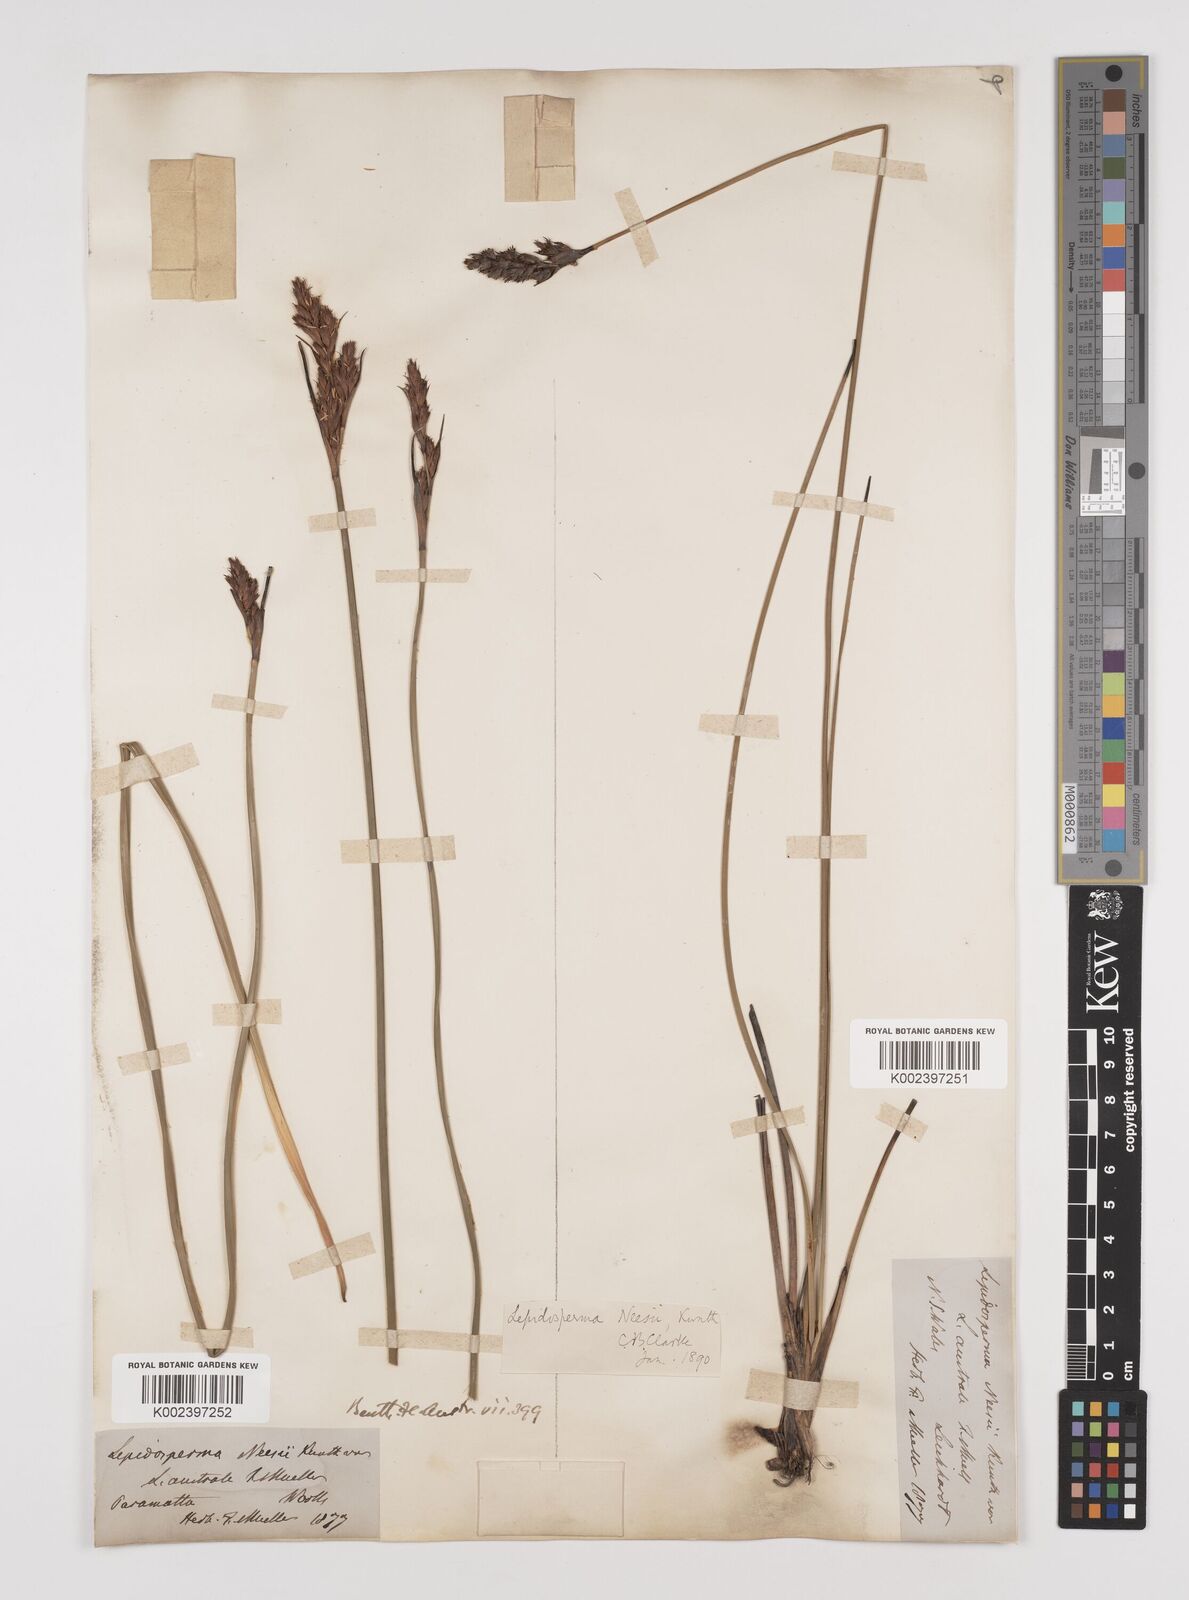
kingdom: Plantae
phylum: Tracheophyta
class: Liliopsida
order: Poales
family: Cyperaceae
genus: Lepidosperma
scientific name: Lepidosperma quadrangulatum
